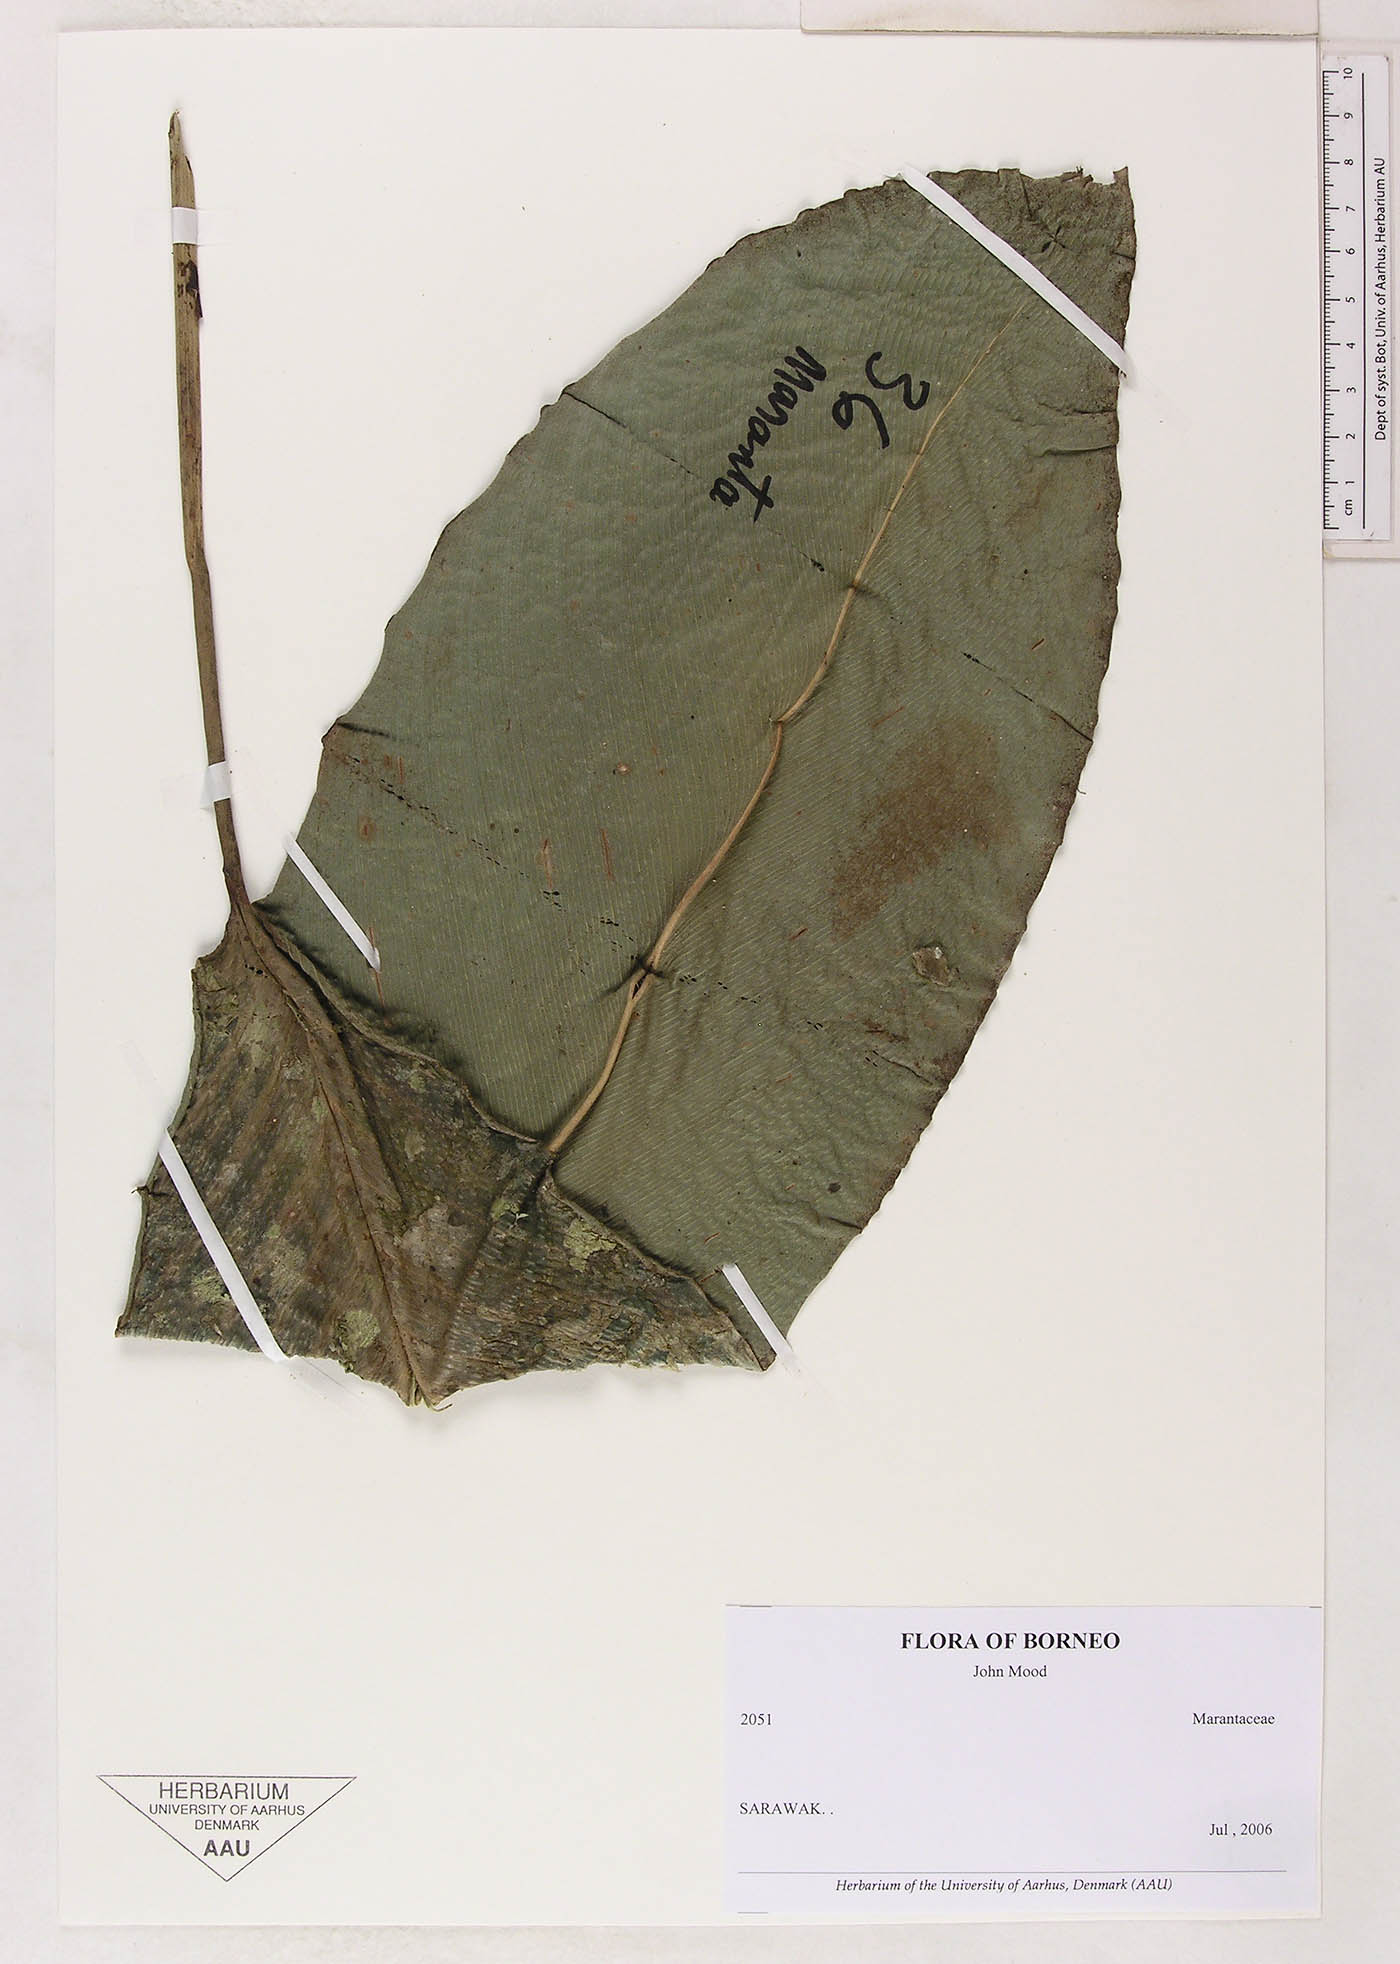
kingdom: Plantae
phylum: Tracheophyta
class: Liliopsida
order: Zingiberales
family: Marantaceae
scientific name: Marantaceae
